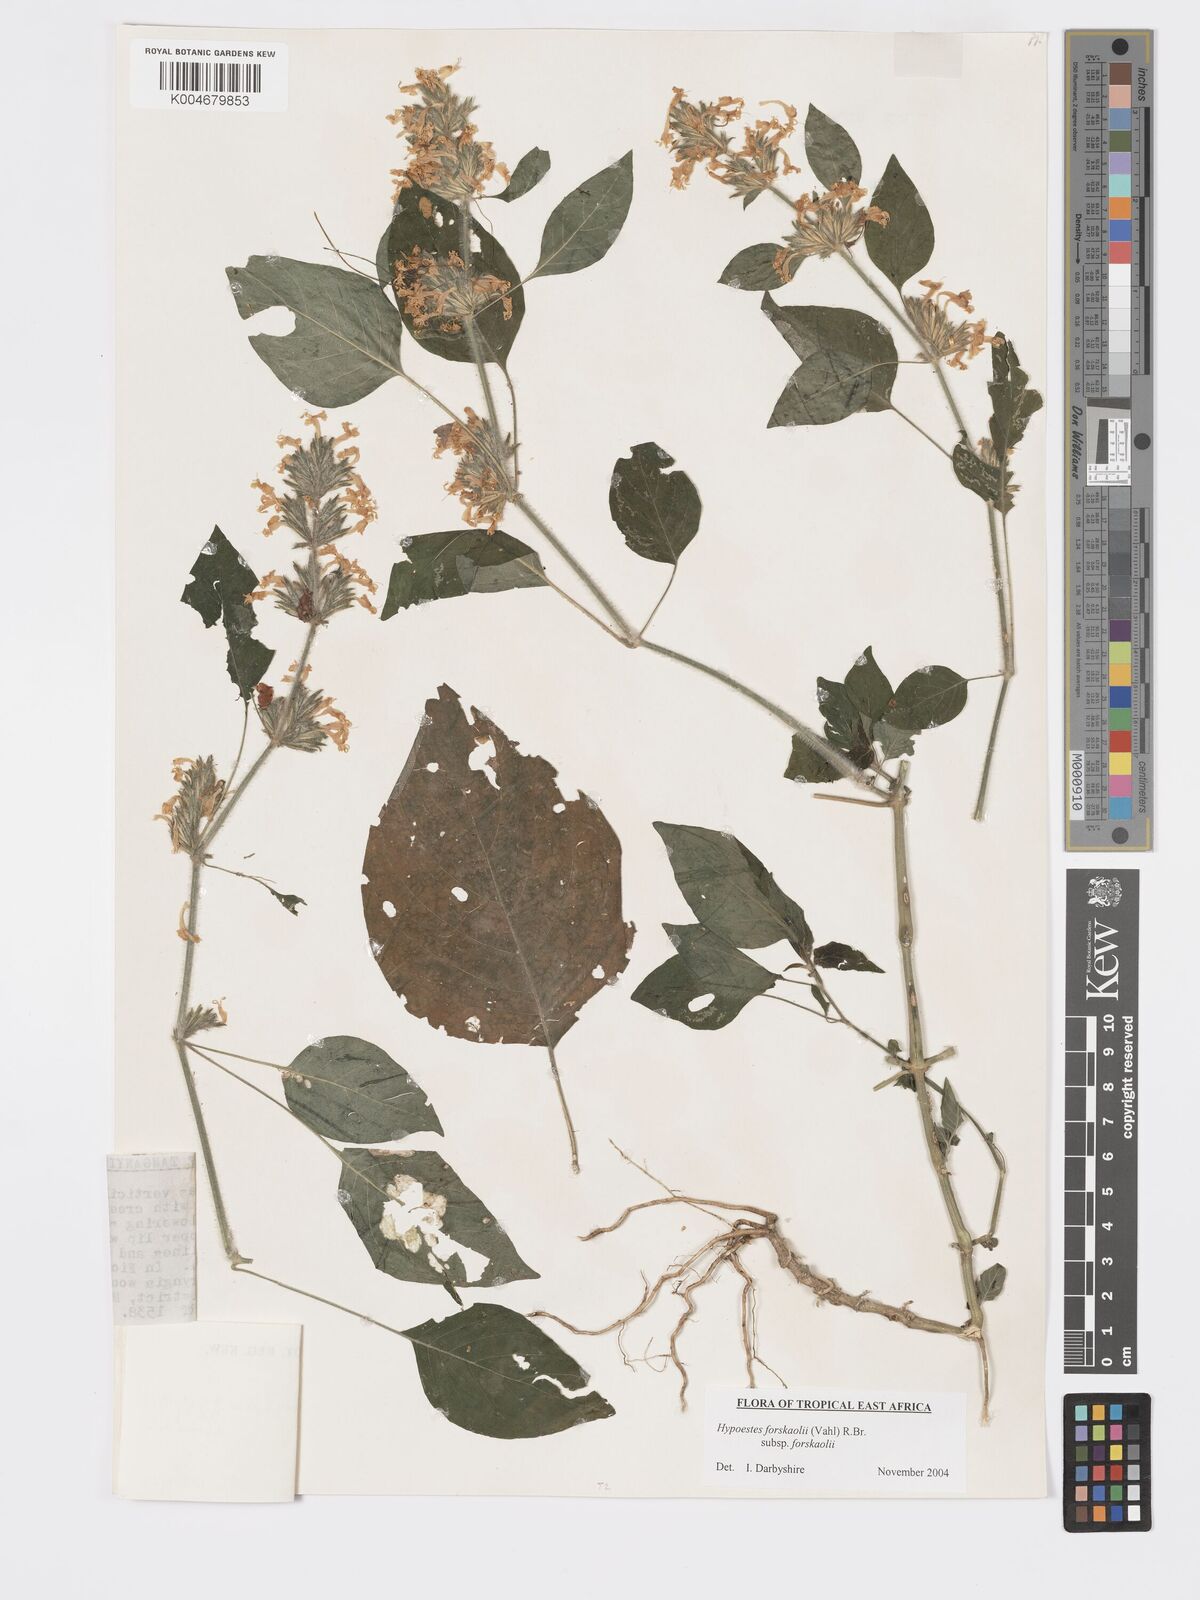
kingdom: Plantae
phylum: Tracheophyta
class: Magnoliopsida
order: Lamiales
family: Acanthaceae
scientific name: Acanthaceae
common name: Acanthaceae
